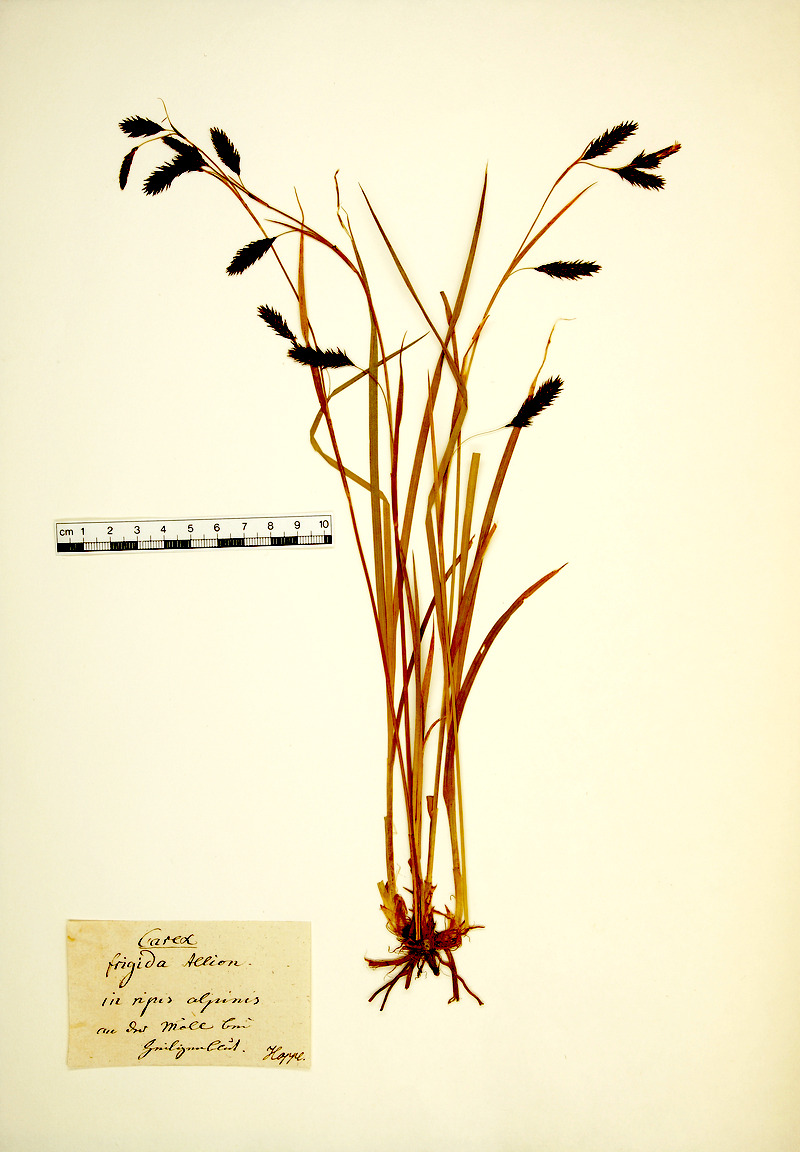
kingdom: Plantae
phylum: Tracheophyta
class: Liliopsida
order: Poales
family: Cyperaceae
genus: Carex
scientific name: Carex frigida
